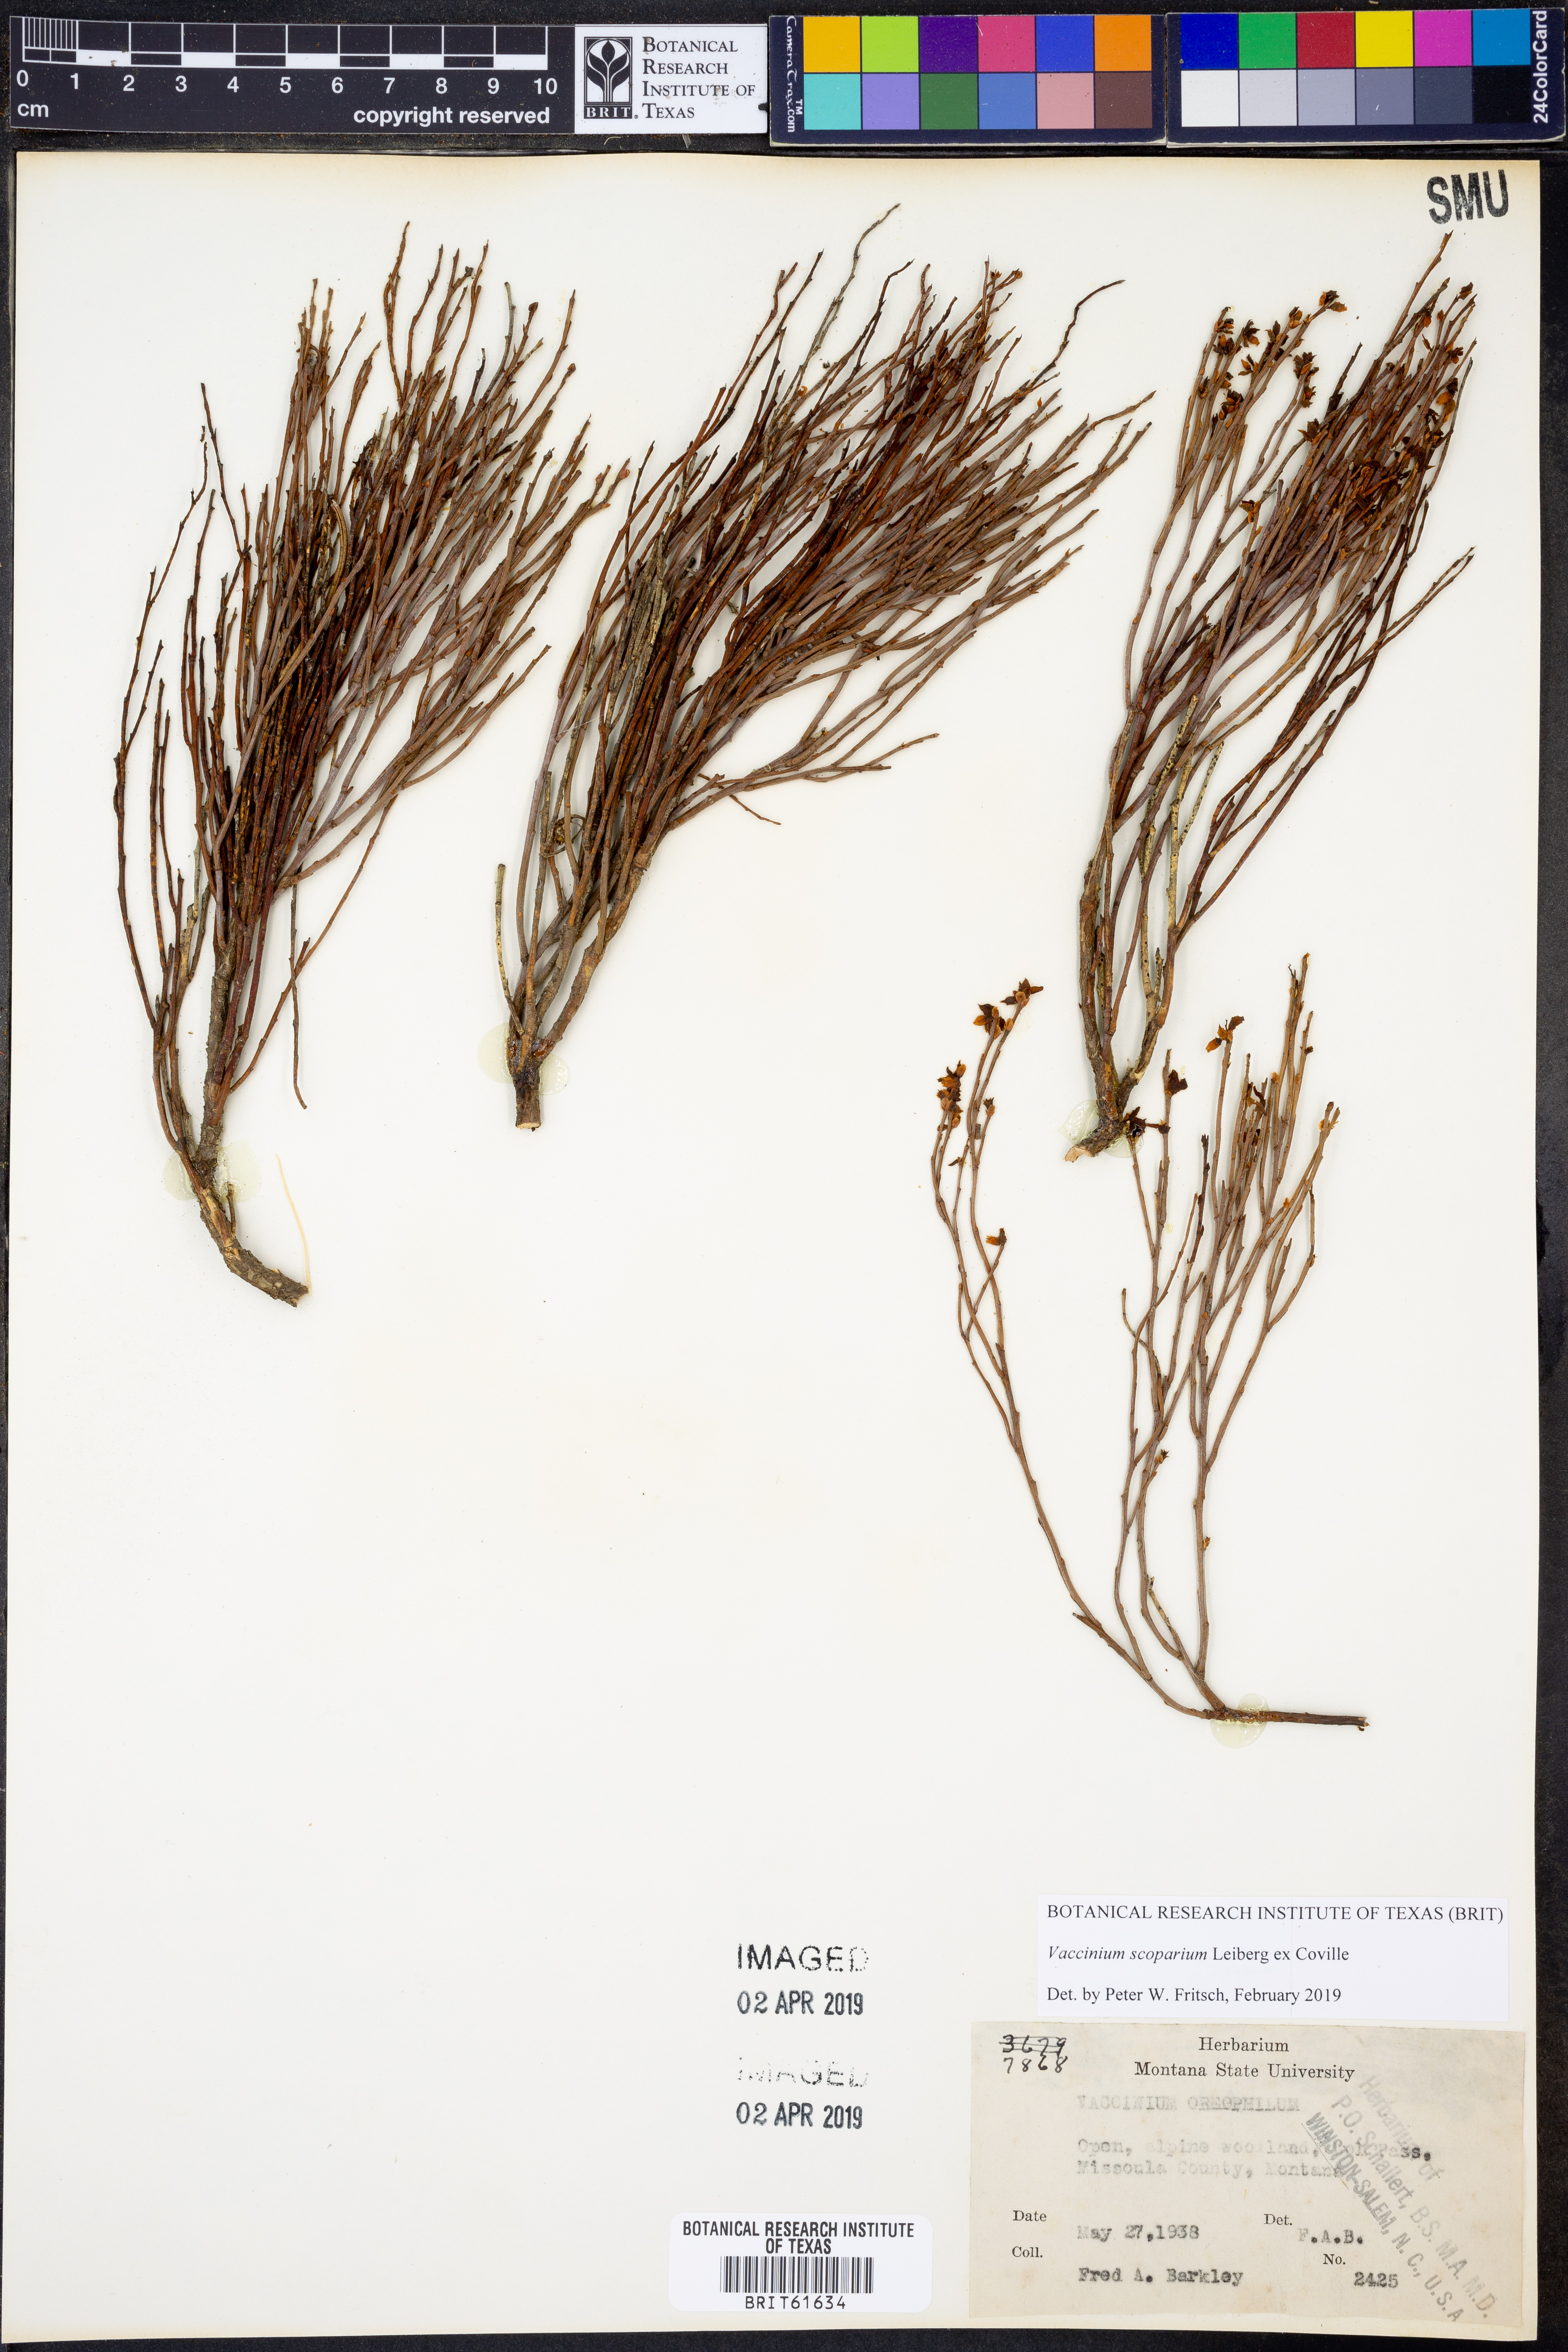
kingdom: Plantae
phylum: Tracheophyta
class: Magnoliopsida
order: Ericales
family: Ericaceae
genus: Vaccinium
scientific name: Vaccinium scoparium
